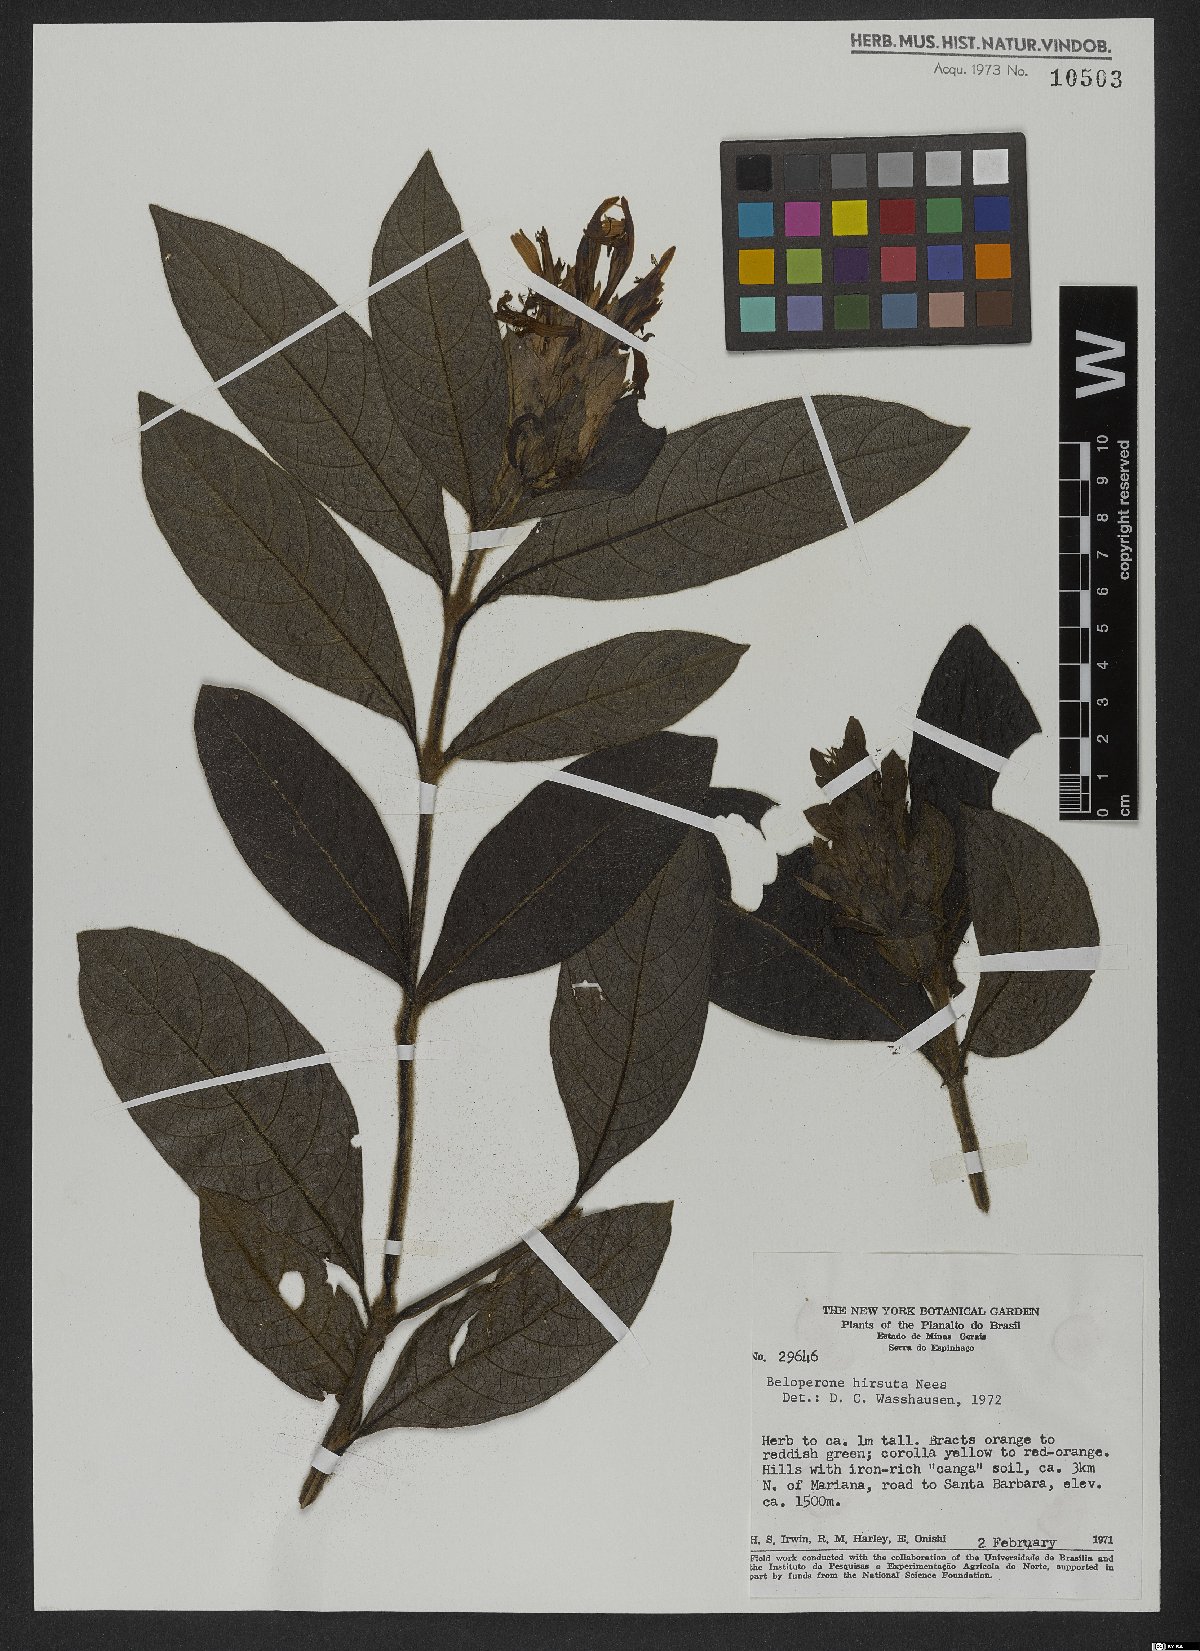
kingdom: Plantae
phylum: Tracheophyta
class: Magnoliopsida
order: Gentianales
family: Rubiaceae
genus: Gonzalagunia
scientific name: Gonzalagunia hirsuta
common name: Mata de mariposa
